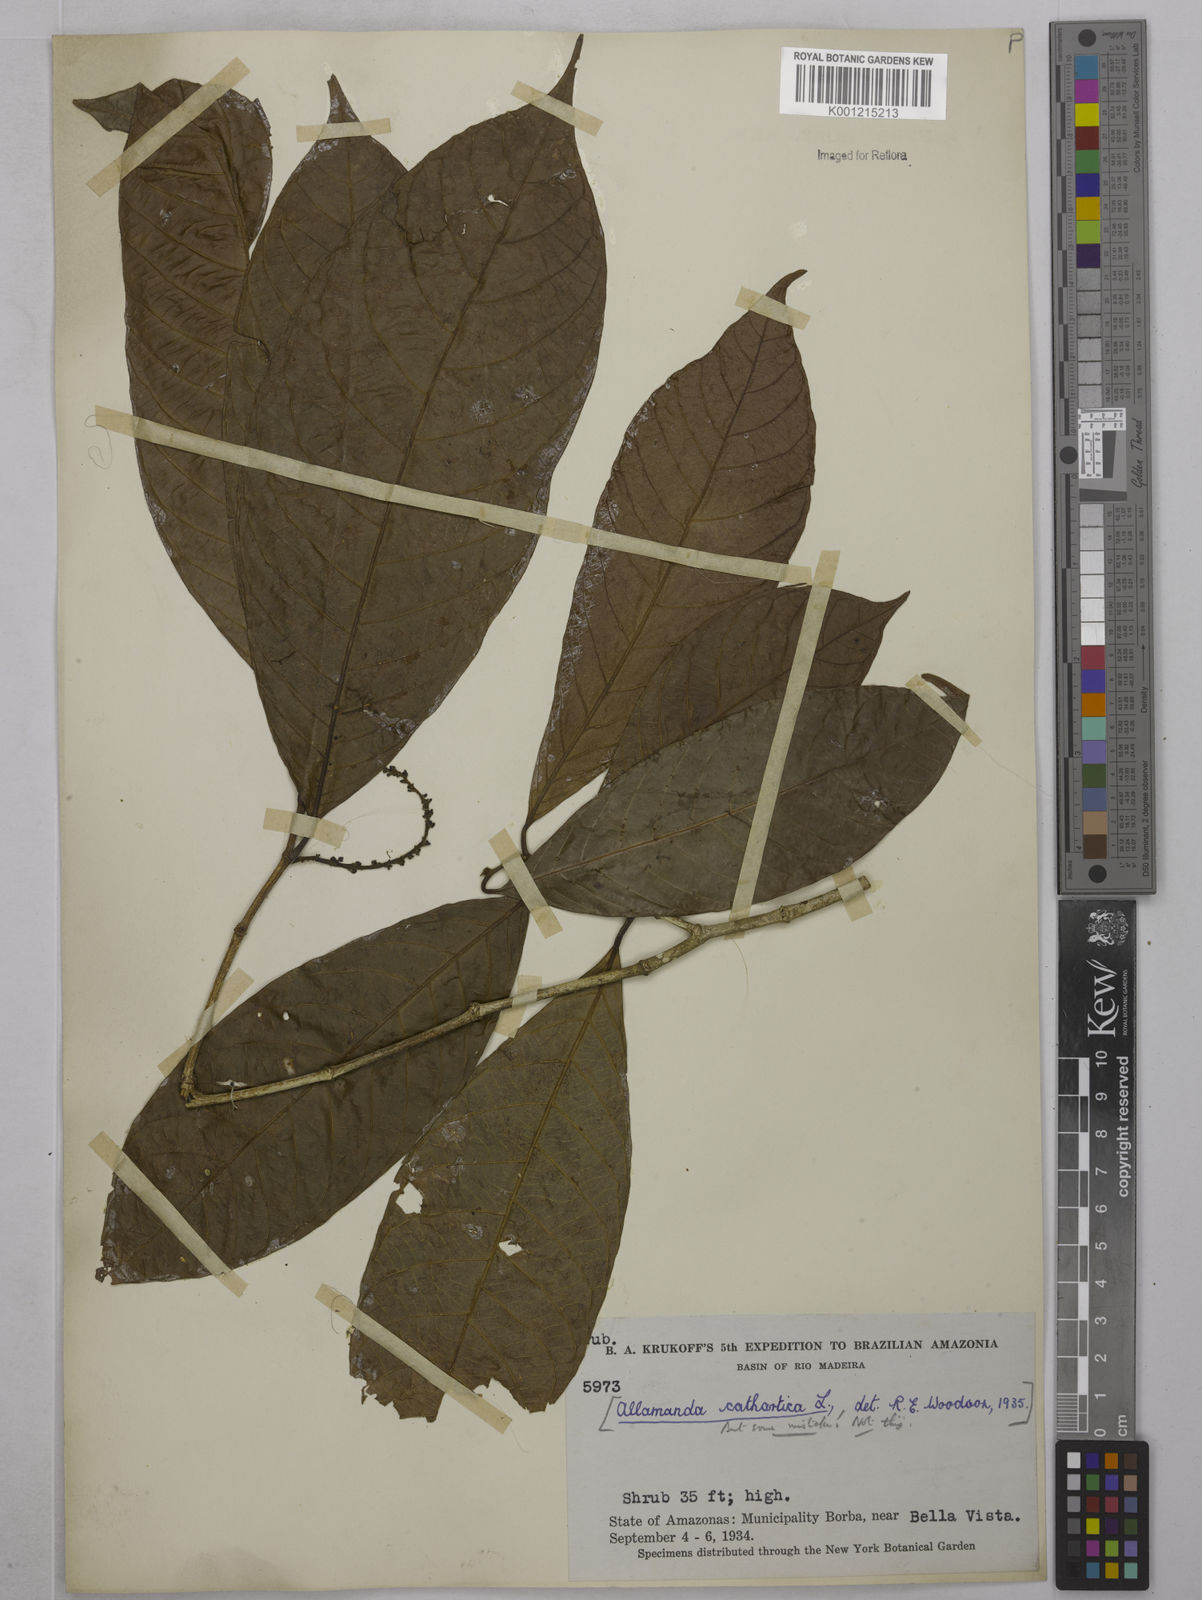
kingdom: Plantae
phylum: Tracheophyta
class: Magnoliopsida
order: Malpighiales
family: Euphorbiaceae
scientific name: Euphorbiaceae
